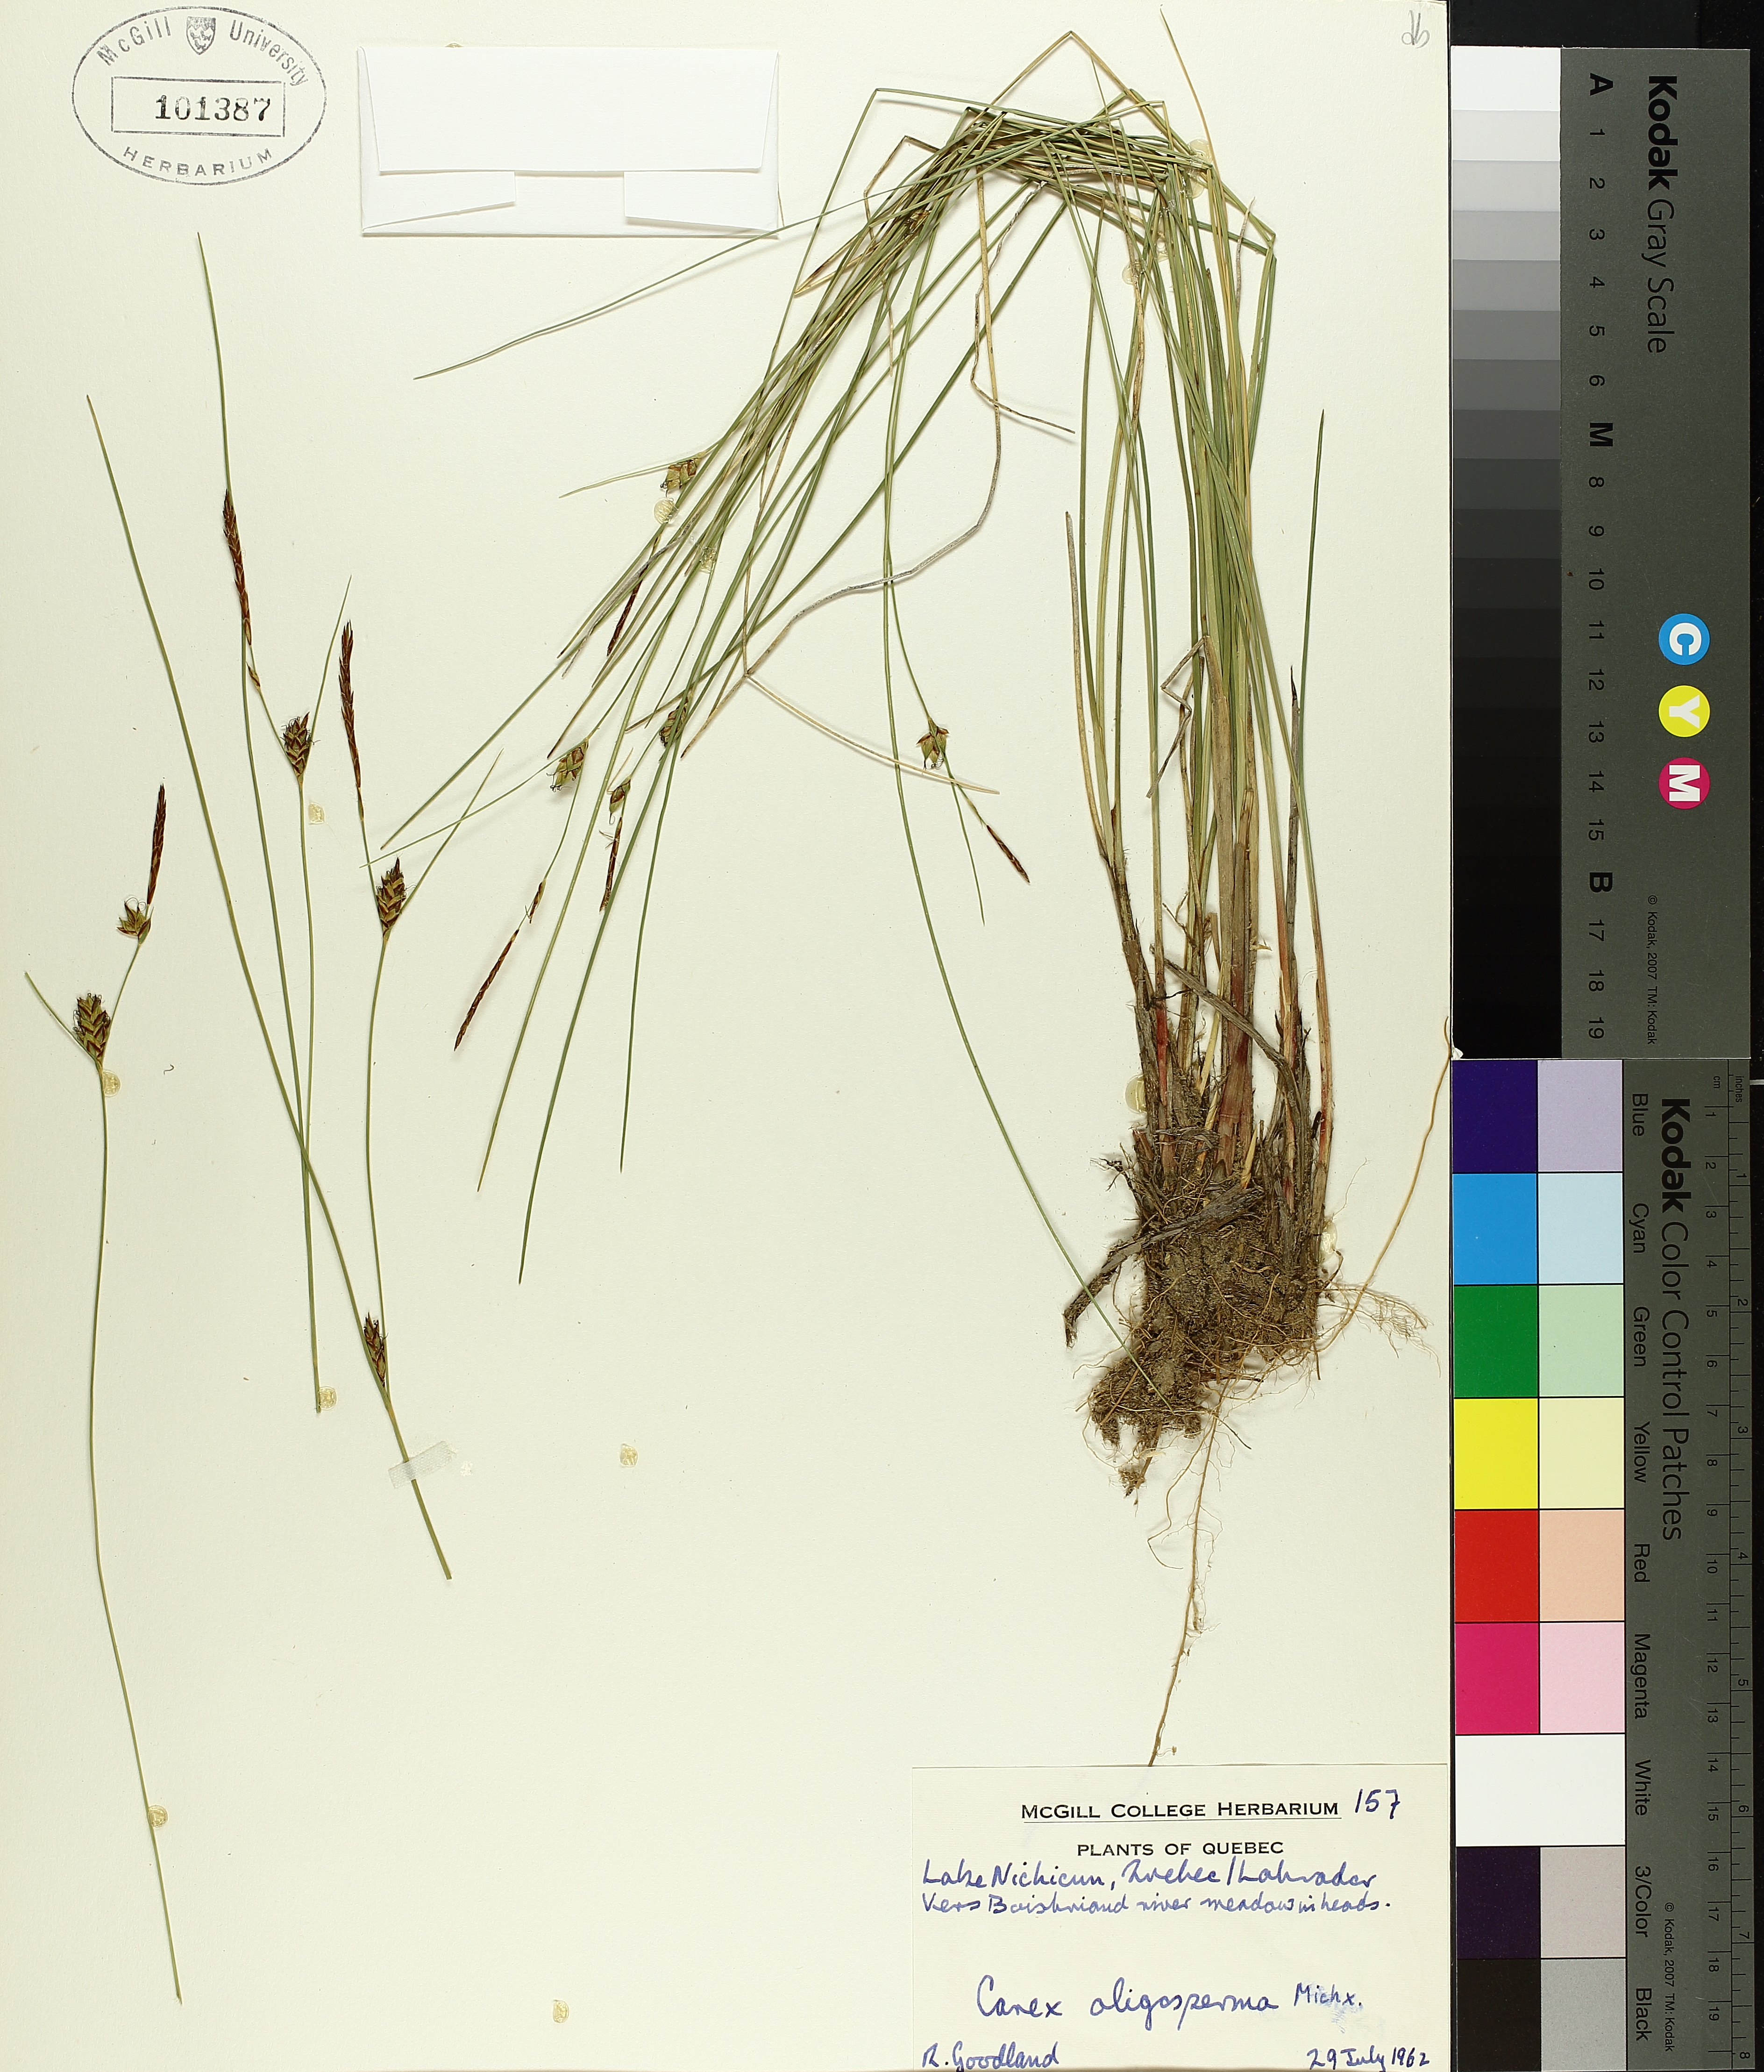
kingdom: Plantae
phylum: Tracheophyta
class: Liliopsida
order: Poales
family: Cyperaceae
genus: Carex
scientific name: Carex oligosperma
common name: Few-seed sedge
